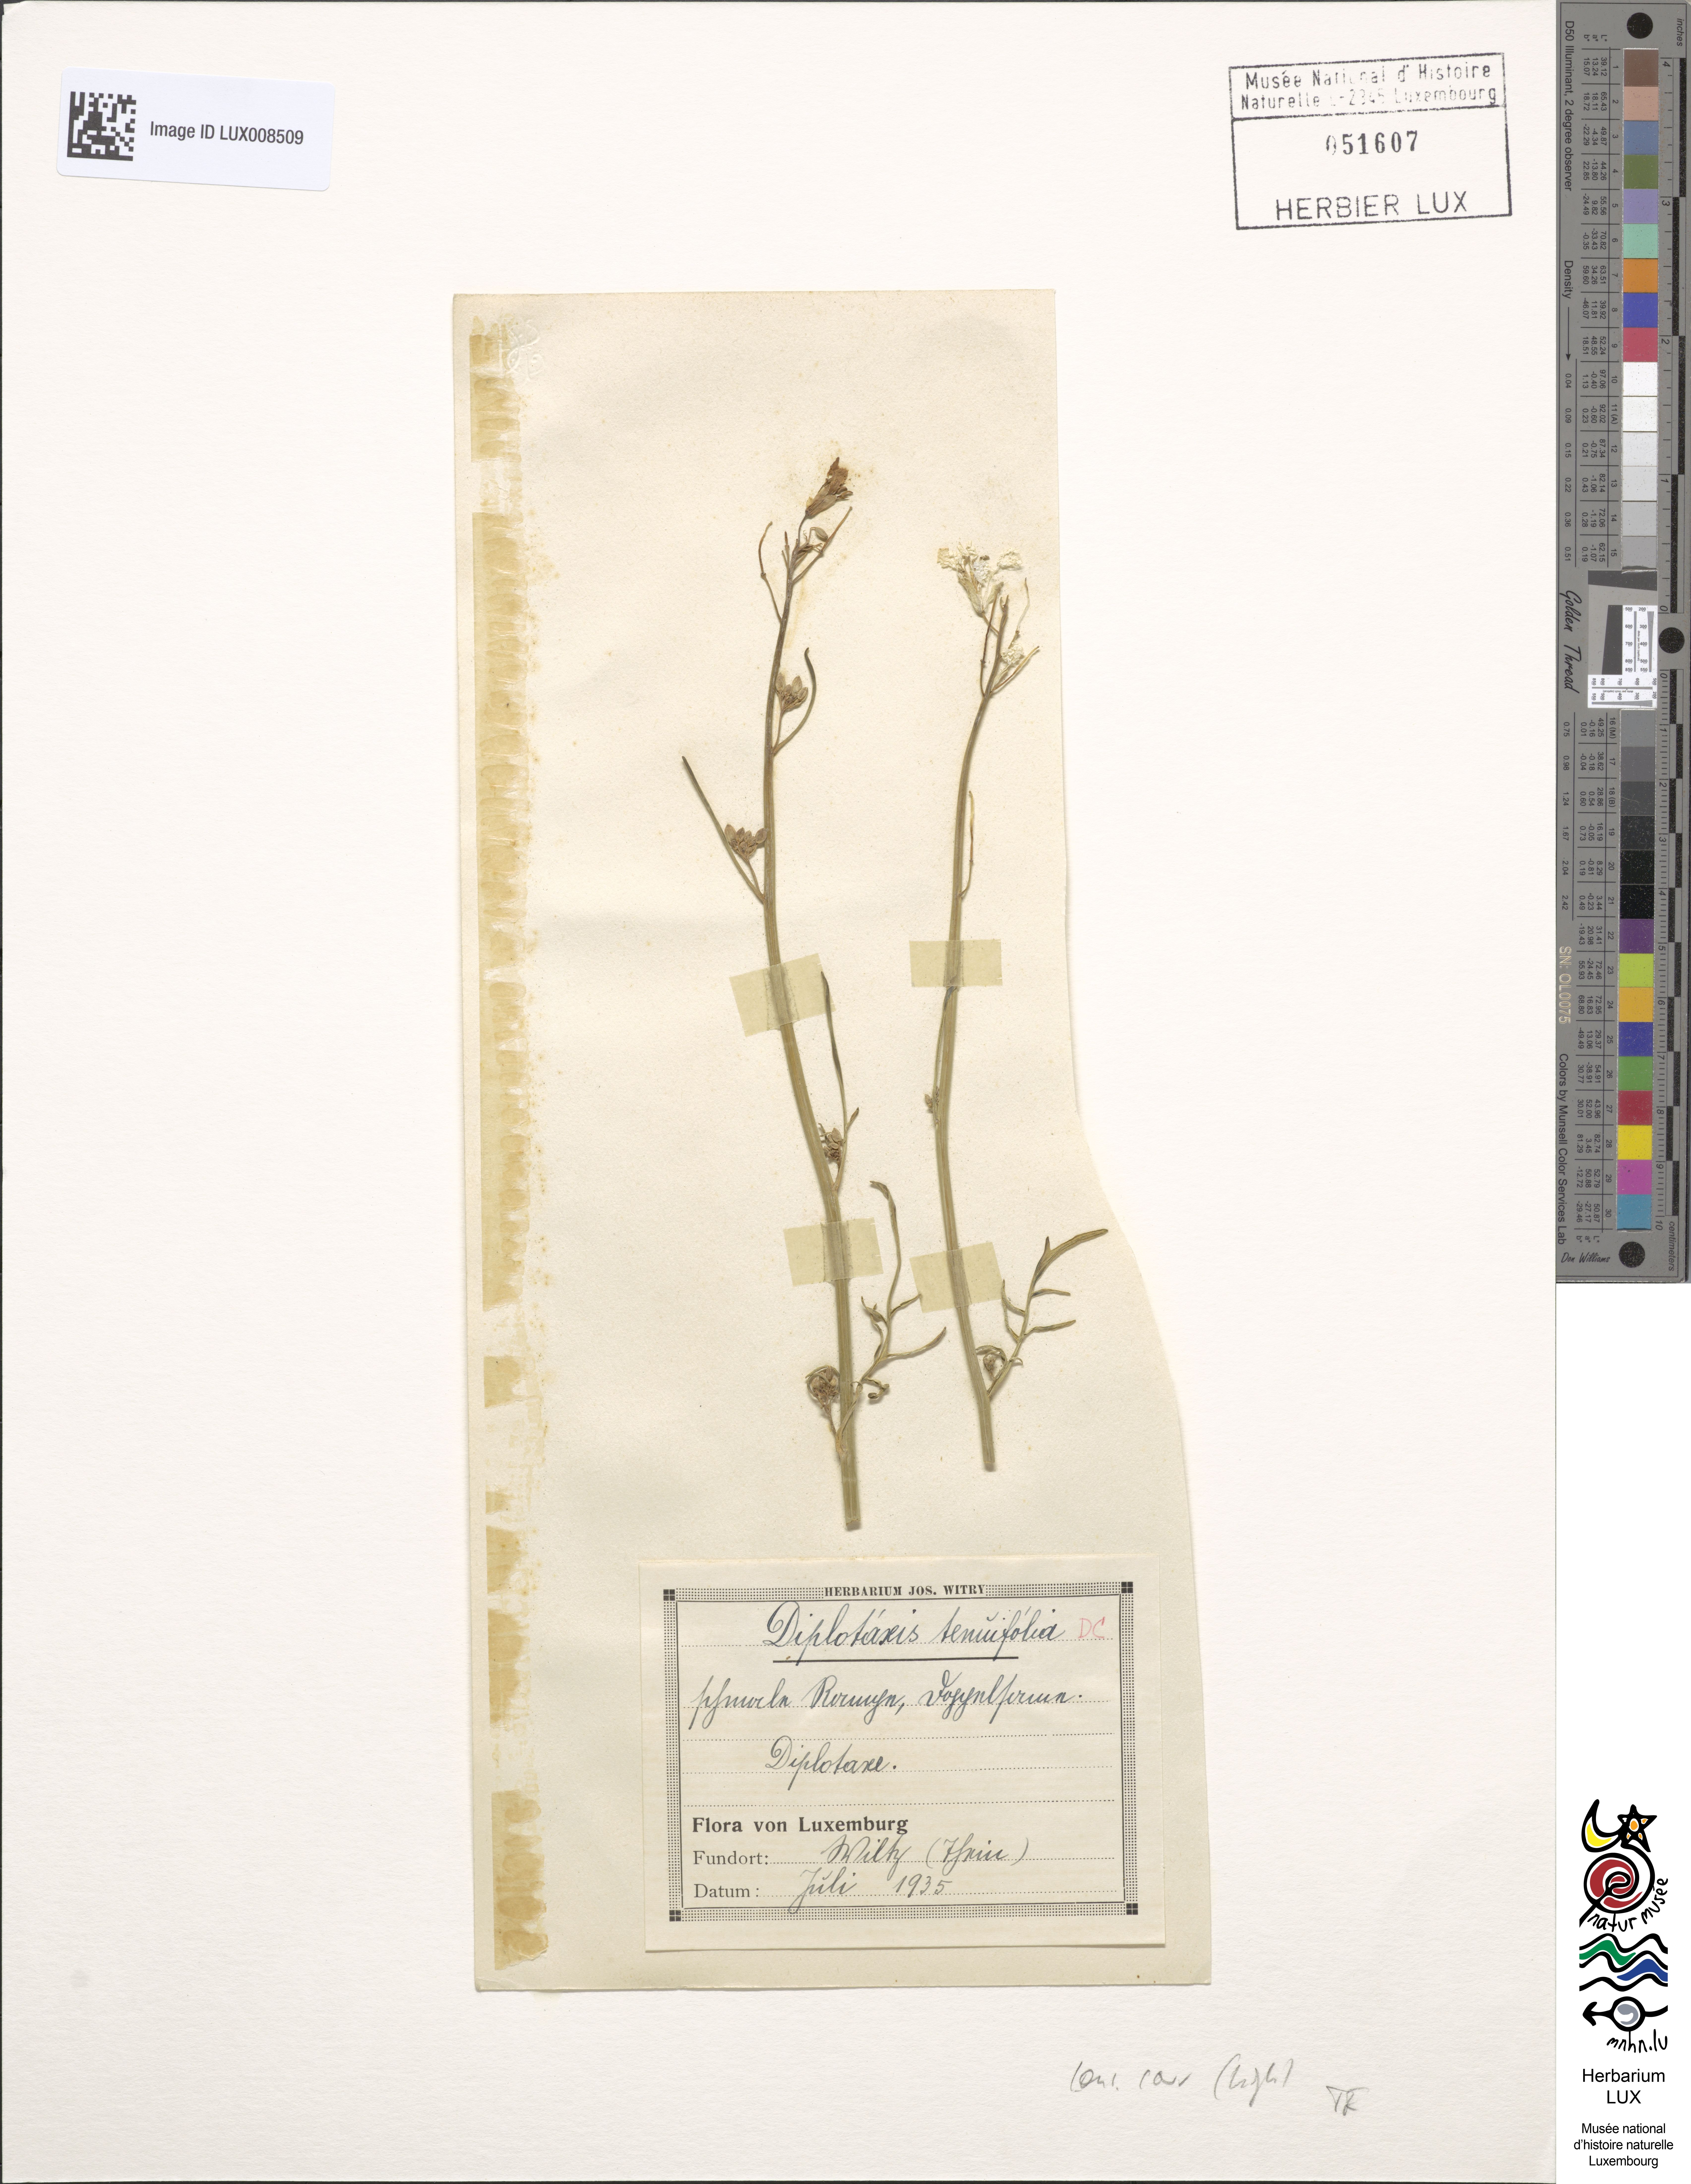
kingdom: Plantae
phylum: Tracheophyta
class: Magnoliopsida
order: Brassicales
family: Brassicaceae
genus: Diplotaxis
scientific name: Diplotaxis tenuifolia
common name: Perennial wall-rocket
